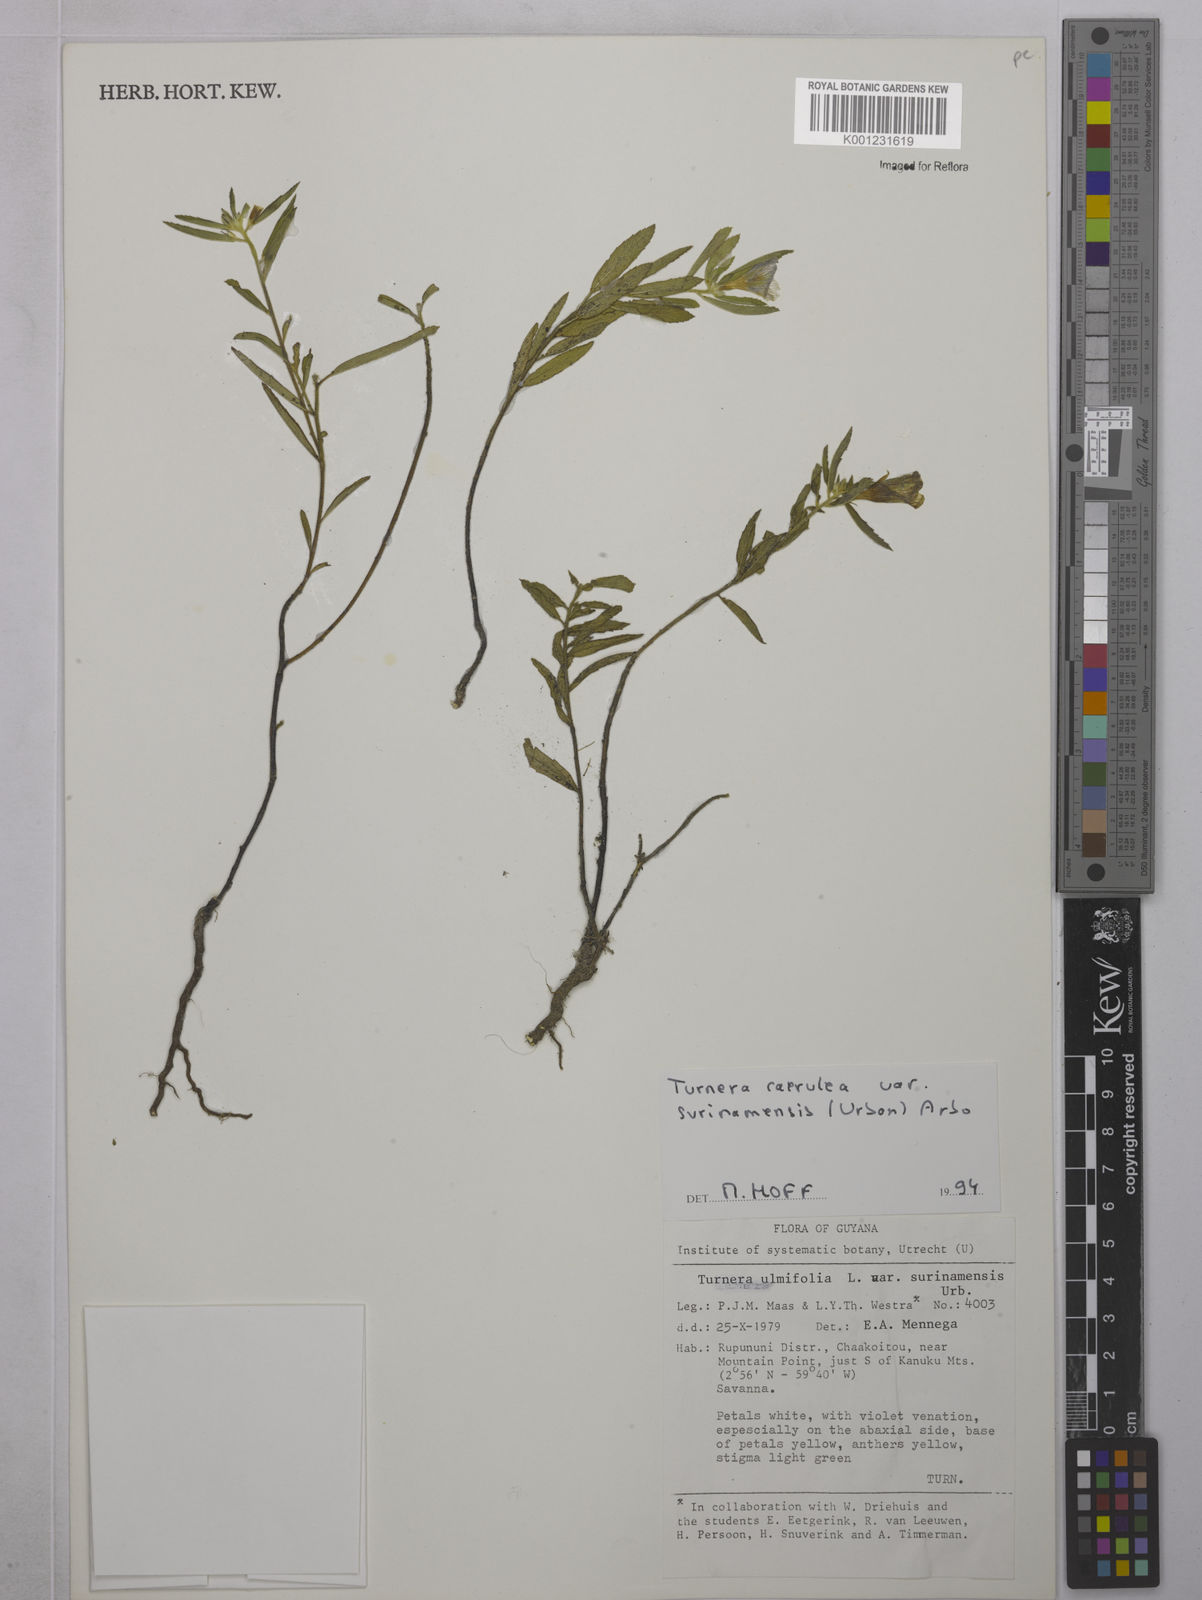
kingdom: Plantae
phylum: Tracheophyta
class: Magnoliopsida
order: Malpighiales
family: Turneraceae
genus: Turnera
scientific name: Turnera coerulea
